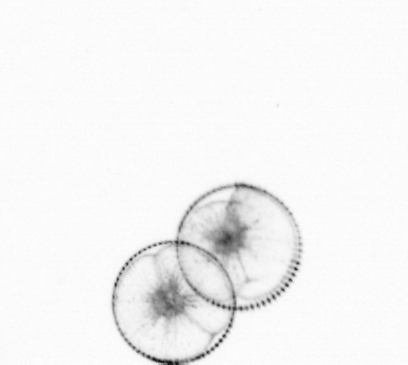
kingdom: Chromista
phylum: Myzozoa
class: Dinophyceae
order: Noctilucales
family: Noctilucaceae
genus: Noctiluca
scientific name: Noctiluca scintillans
